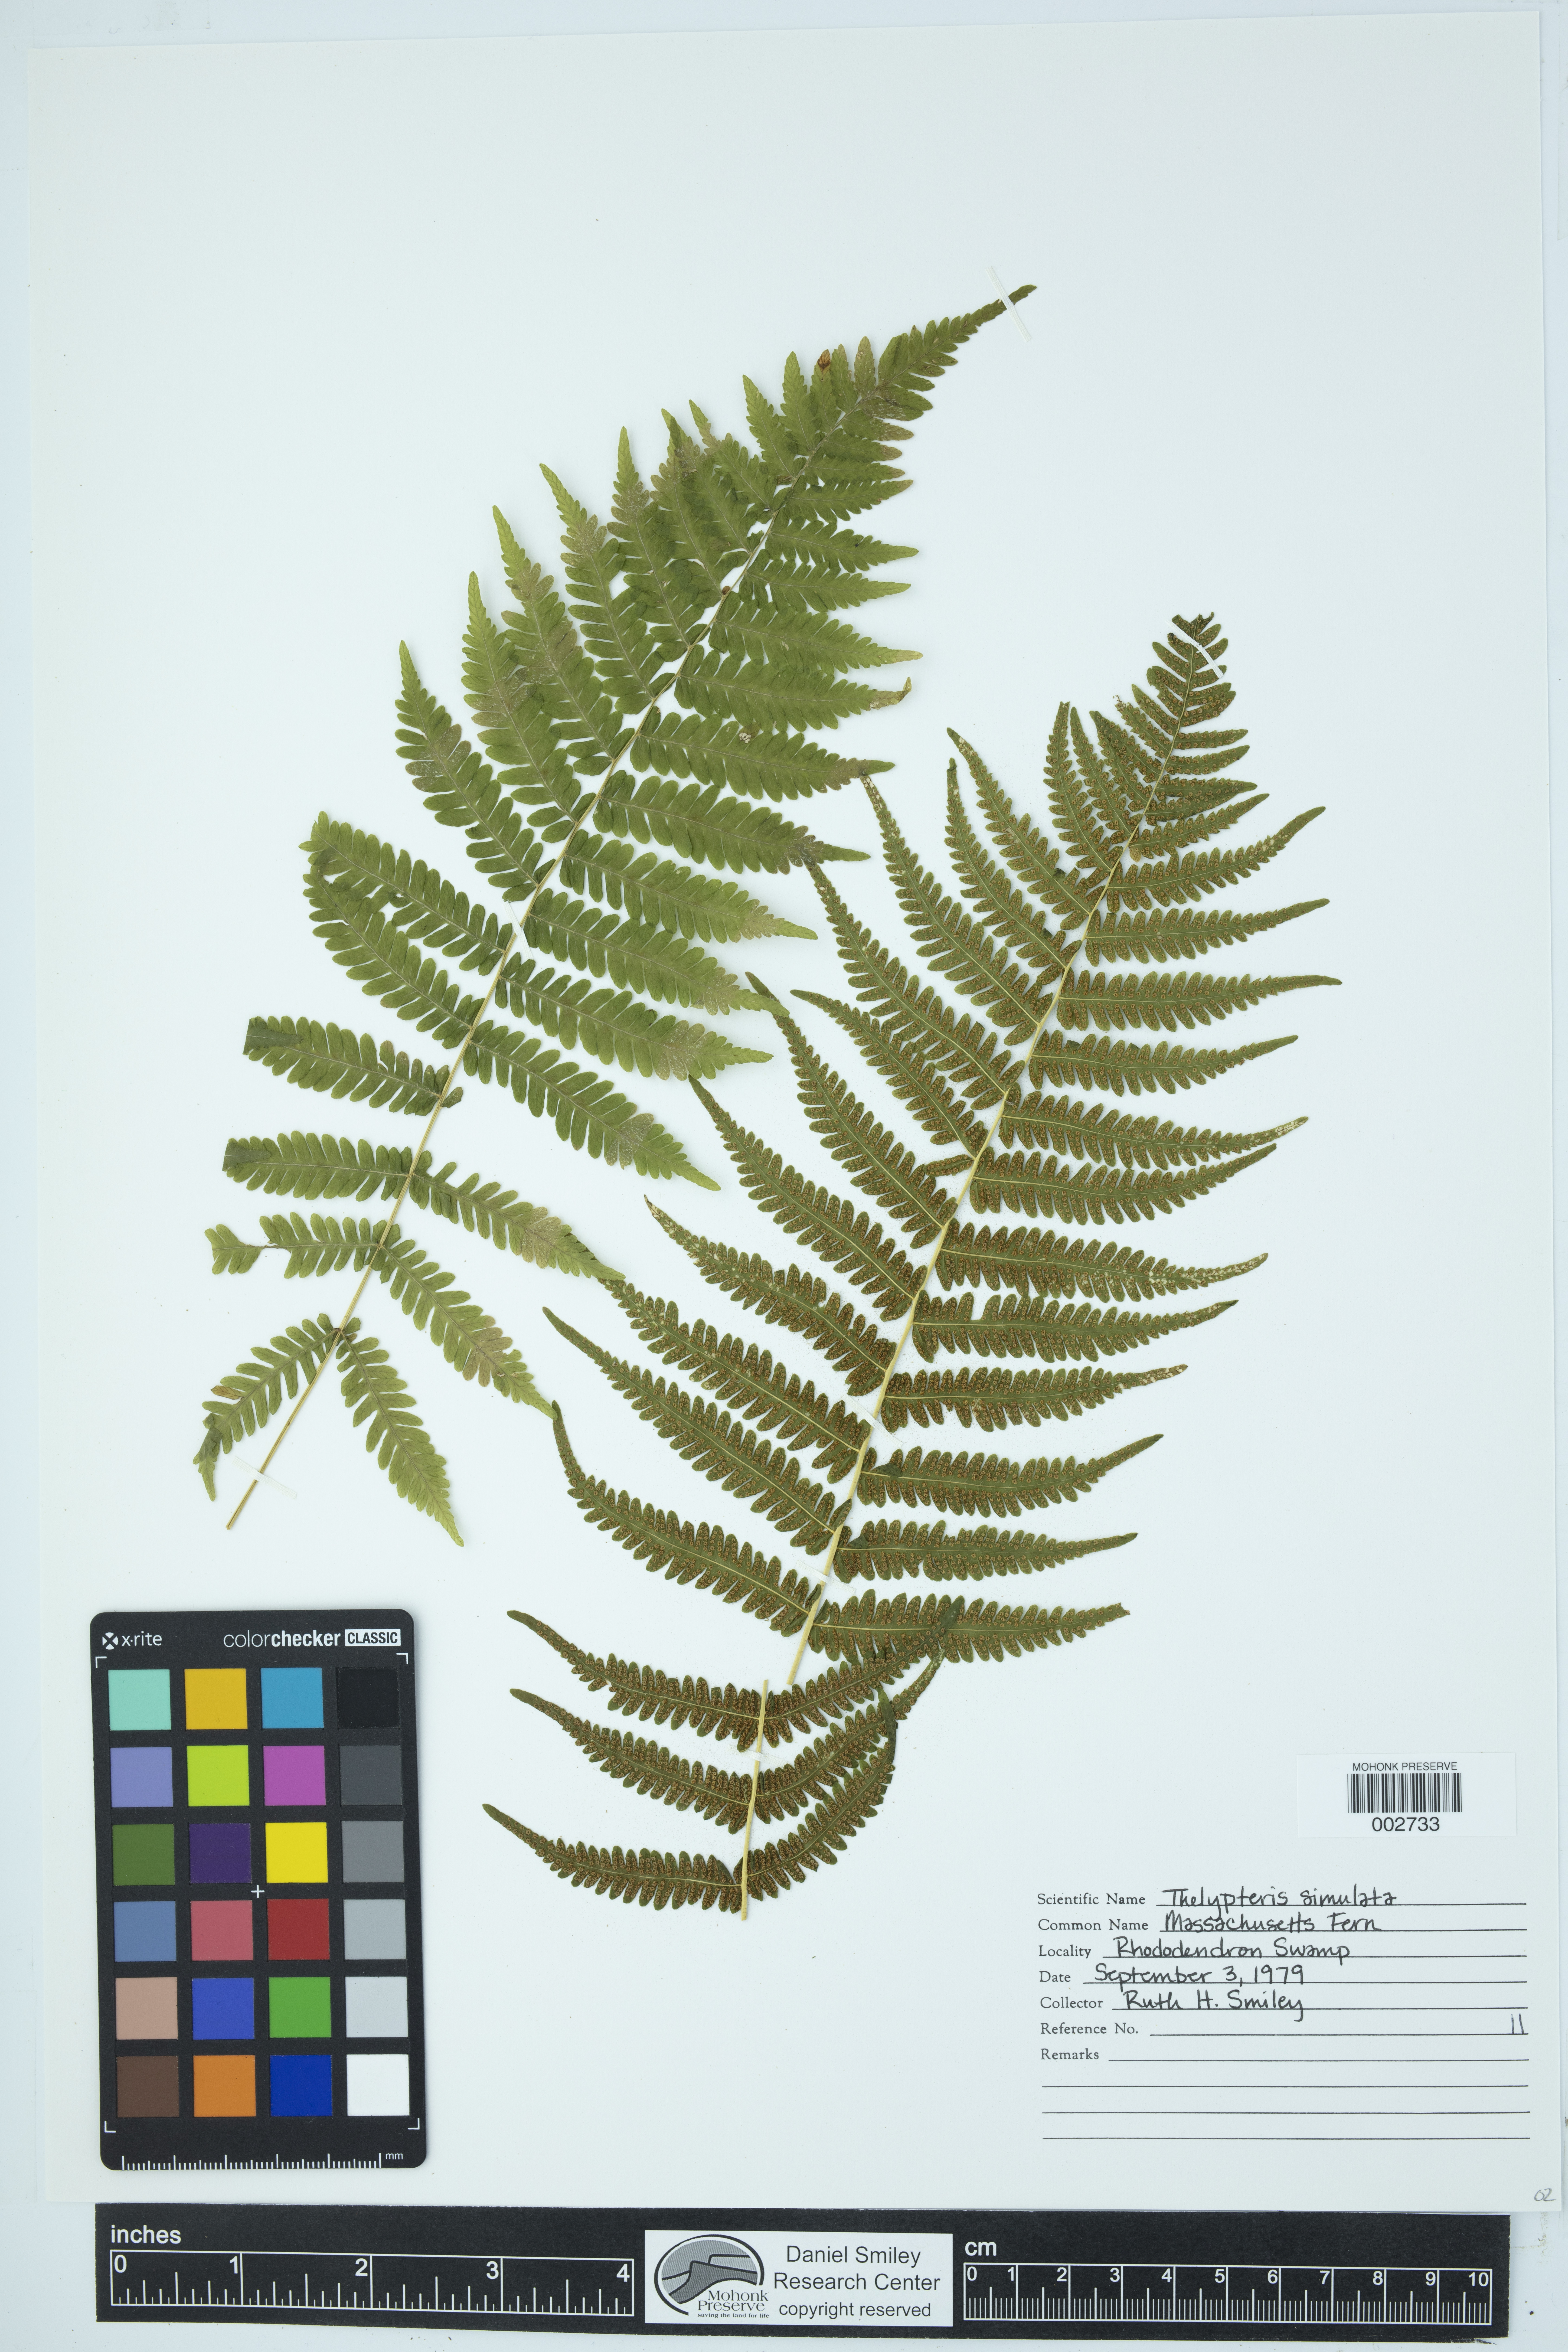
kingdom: Plantae
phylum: Tracheophyta
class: Polypodiopsida
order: Polypodiales
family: Thelypteridaceae
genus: Coryphopteris
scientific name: Coryphopteris simulata
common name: Bog fern
